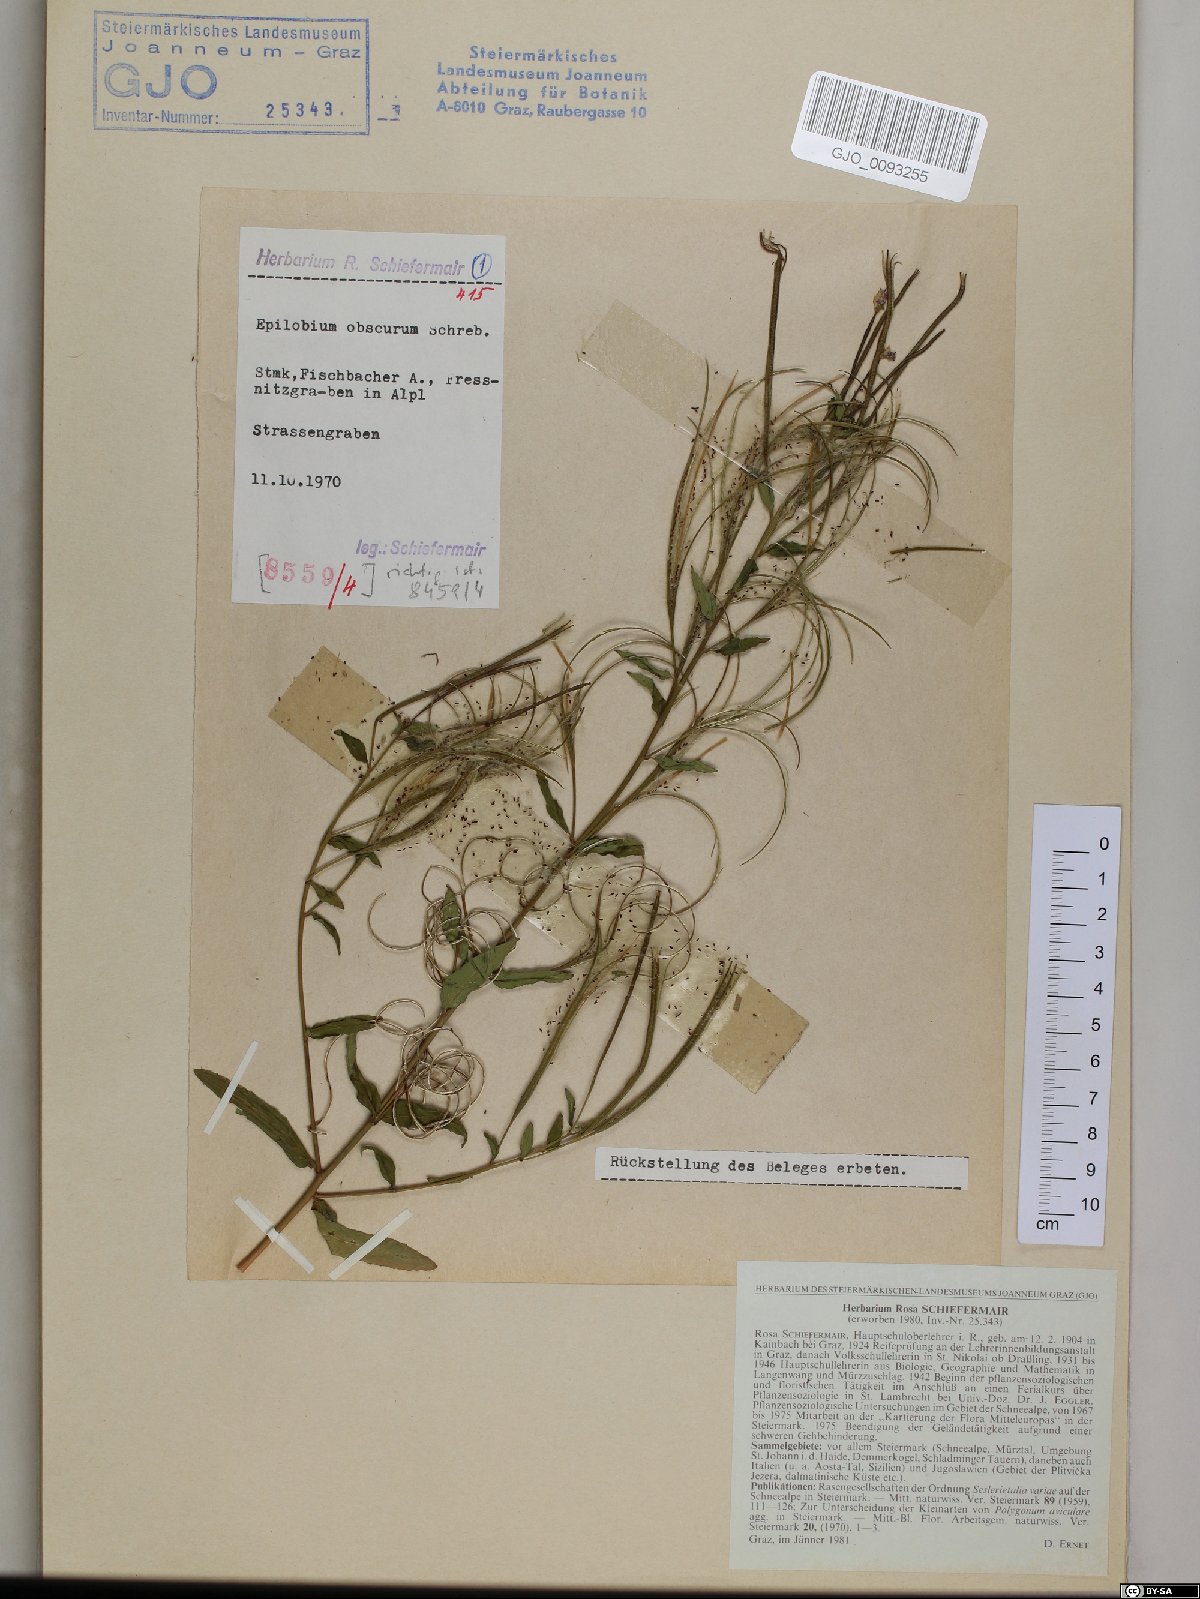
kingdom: Plantae
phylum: Tracheophyta
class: Magnoliopsida
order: Myrtales
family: Onagraceae
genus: Epilobium
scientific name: Epilobium obscurum
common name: Short-fruited willowherb
